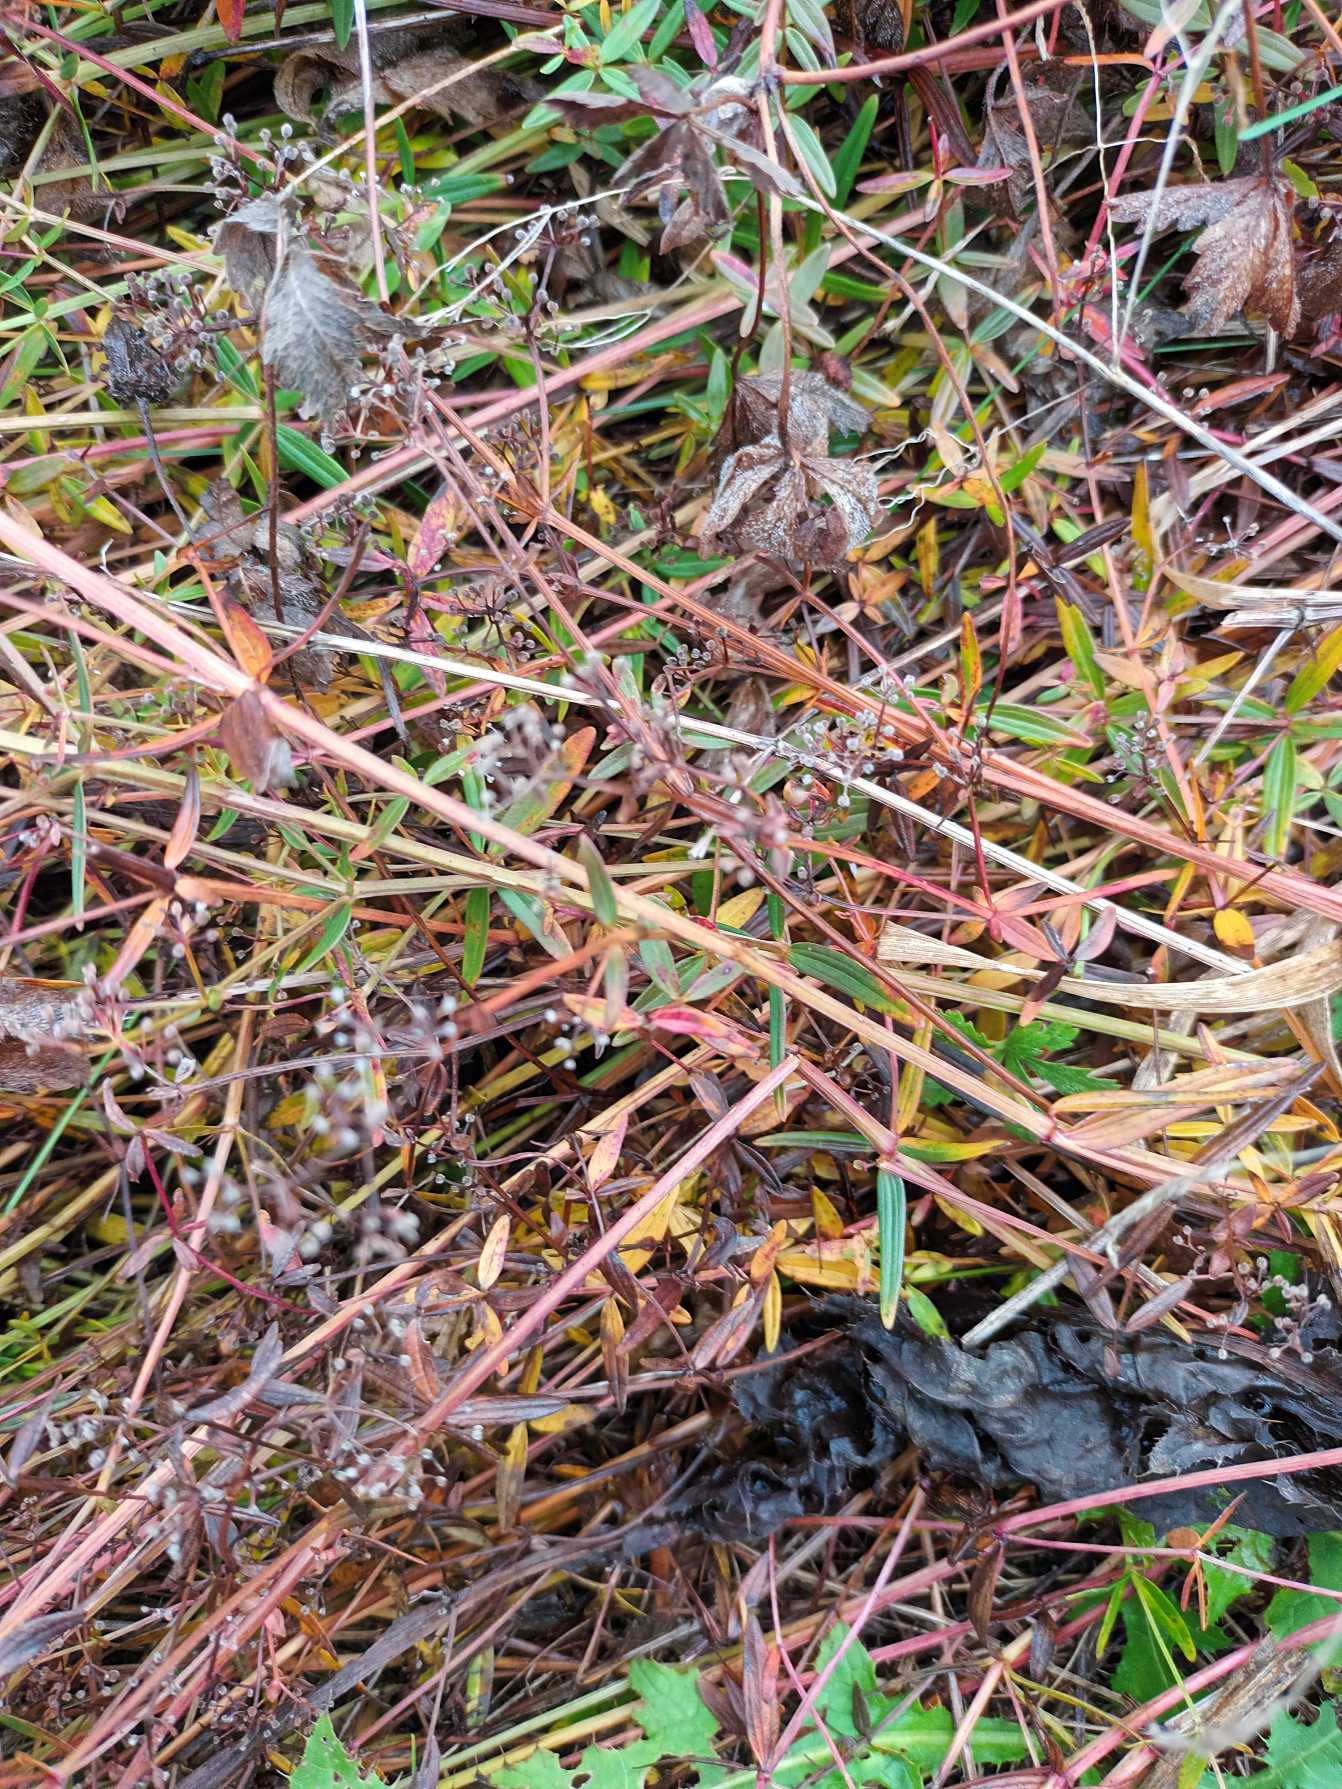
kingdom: Plantae
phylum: Tracheophyta
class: Magnoliopsida
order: Gentianales
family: Rubiaceae
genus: Galium
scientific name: Galium boreale
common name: Trenervet snerre
